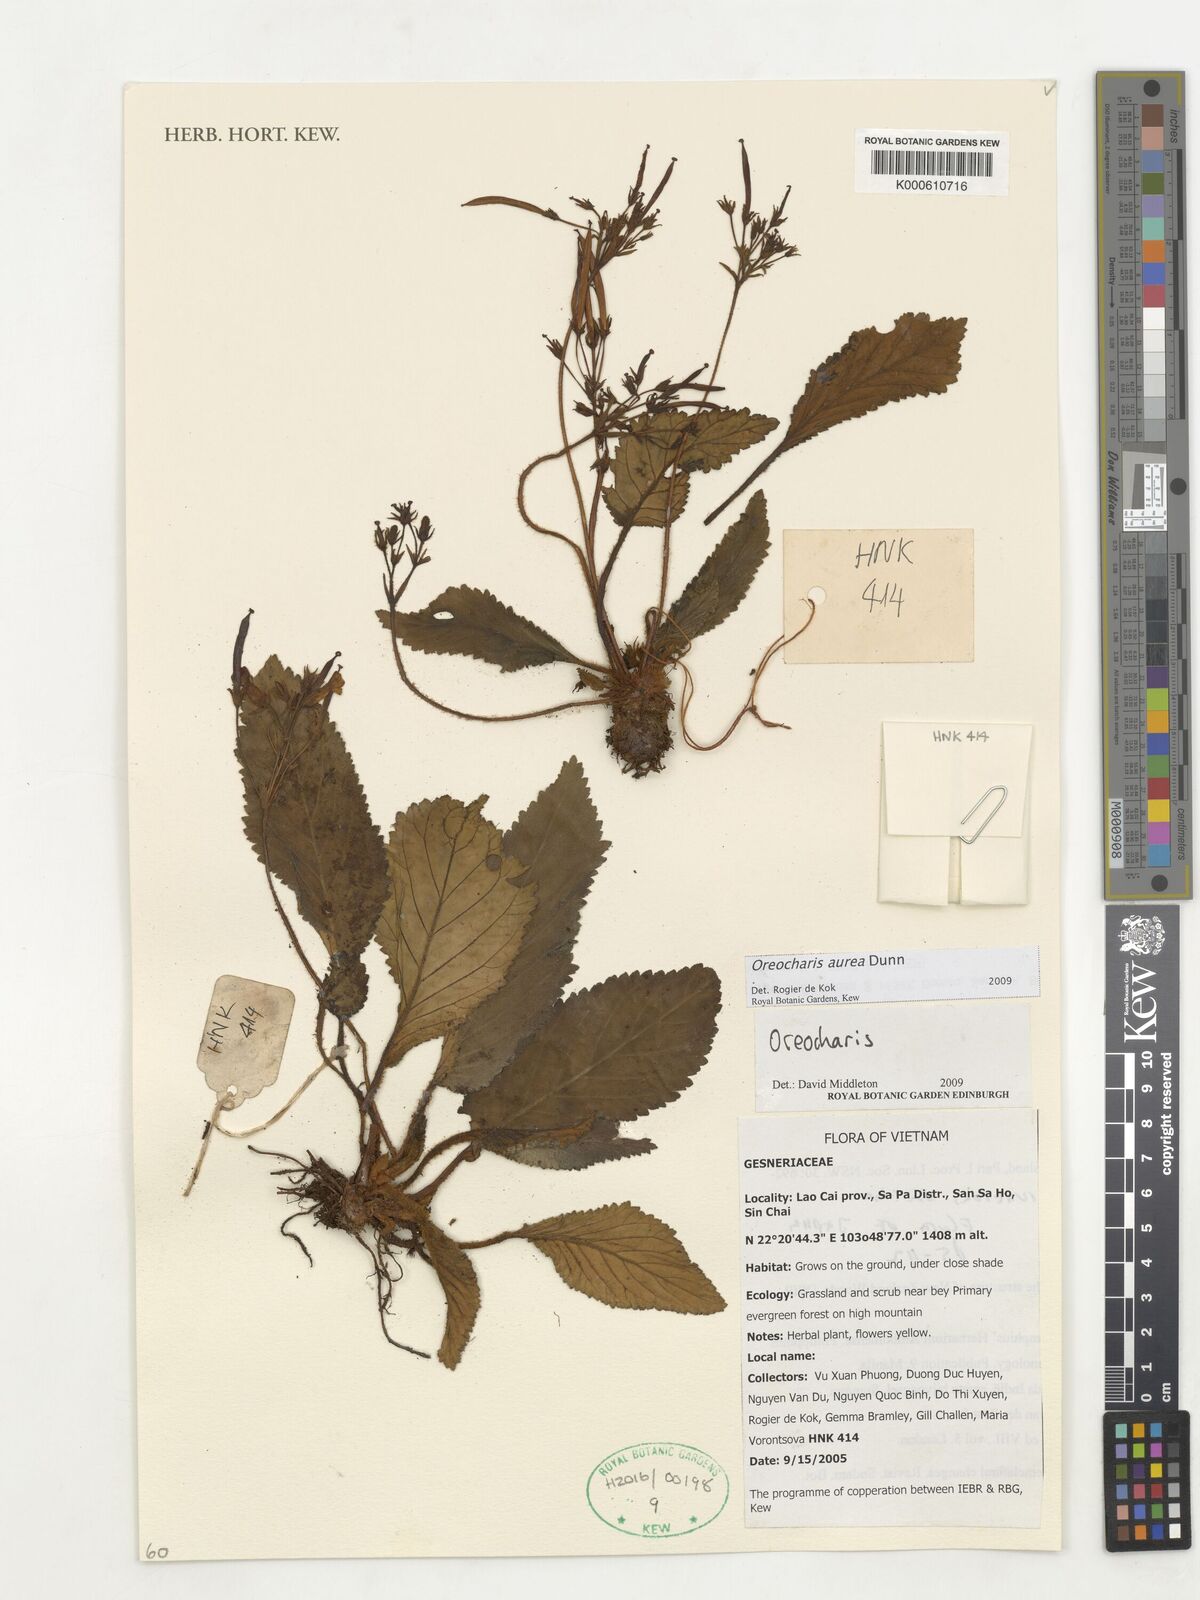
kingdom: Plantae
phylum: Tracheophyta
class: Magnoliopsida
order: Lamiales
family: Gesneriaceae
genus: Oreocharis
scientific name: Oreocharis aurea
